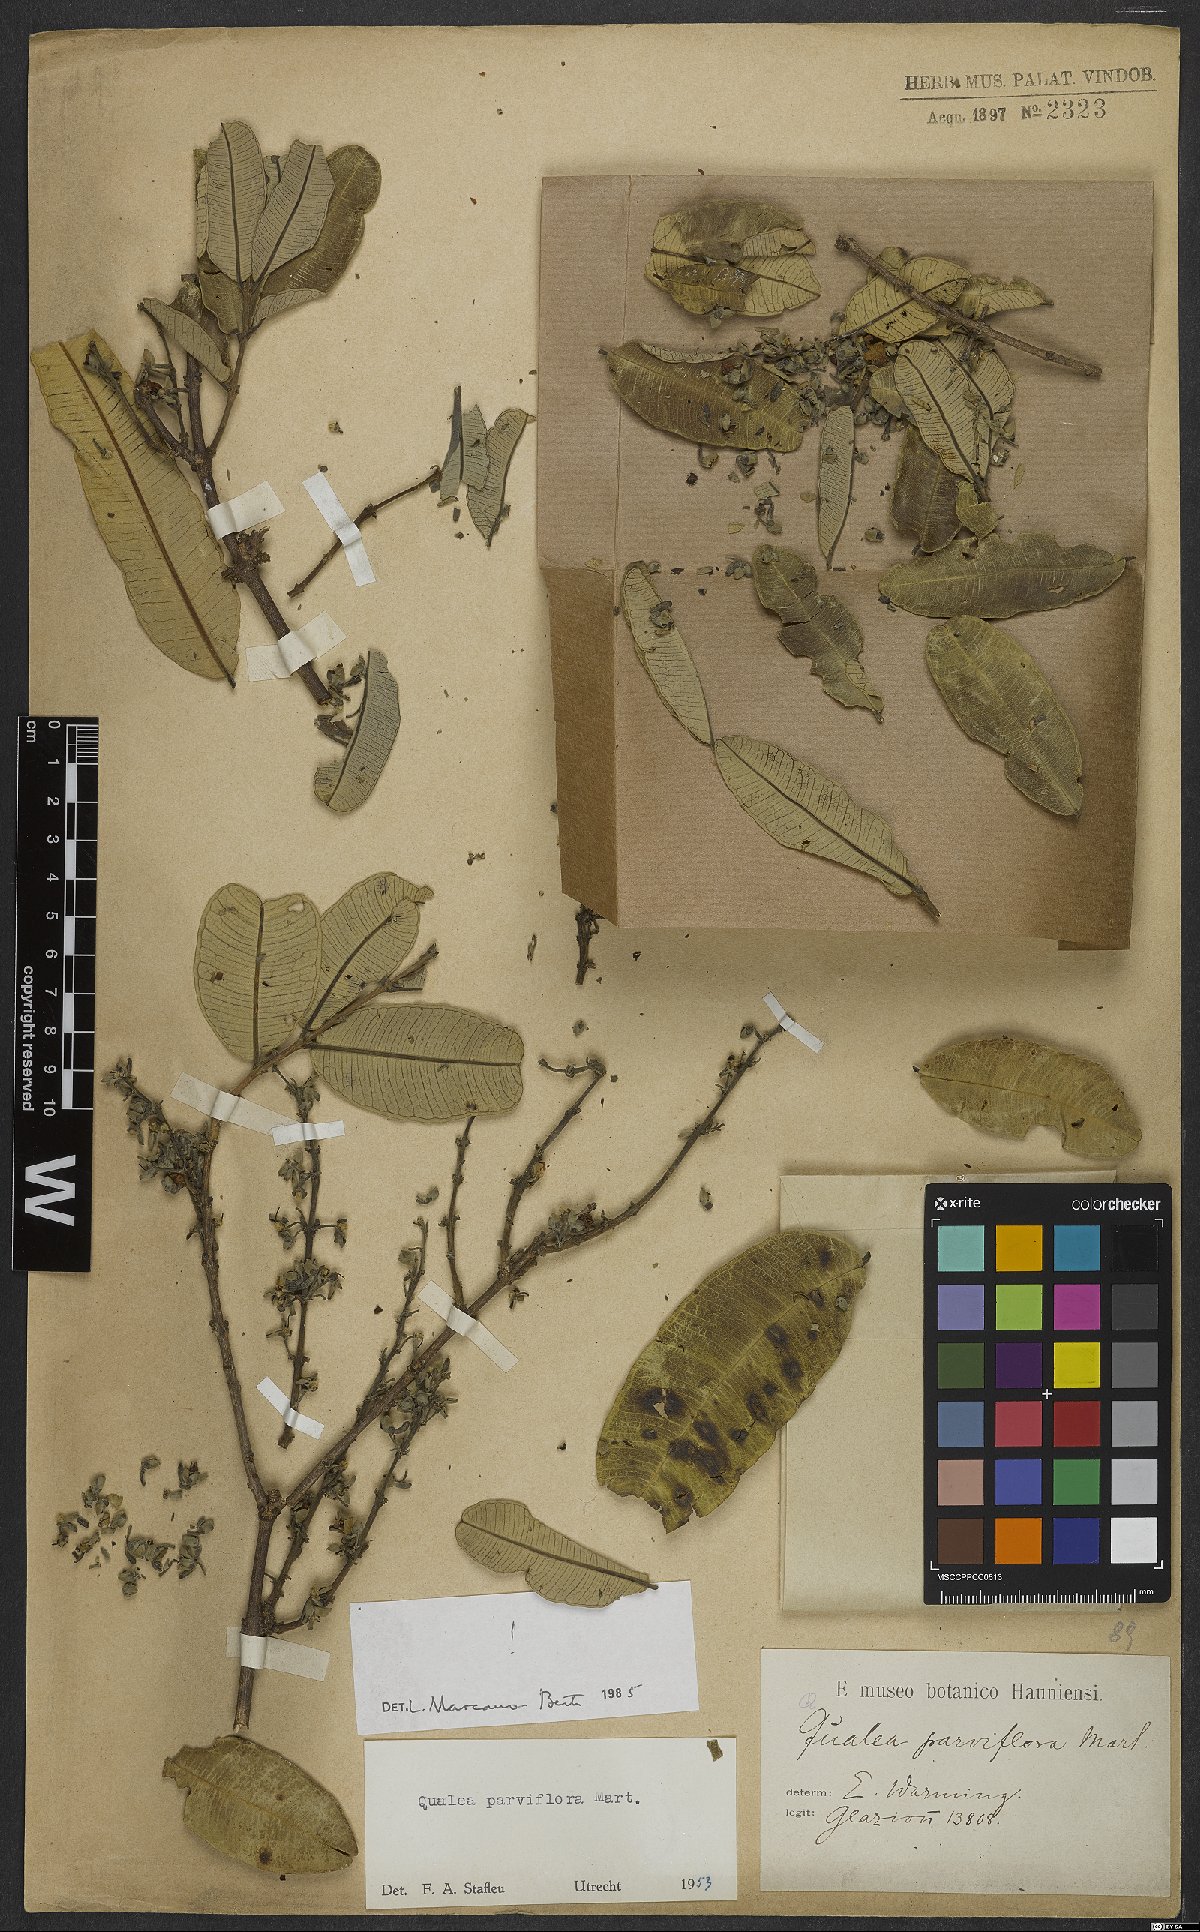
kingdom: Plantae
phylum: Tracheophyta
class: Magnoliopsida
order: Myrtales
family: Vochysiaceae
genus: Qualea
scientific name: Qualea parviflora
